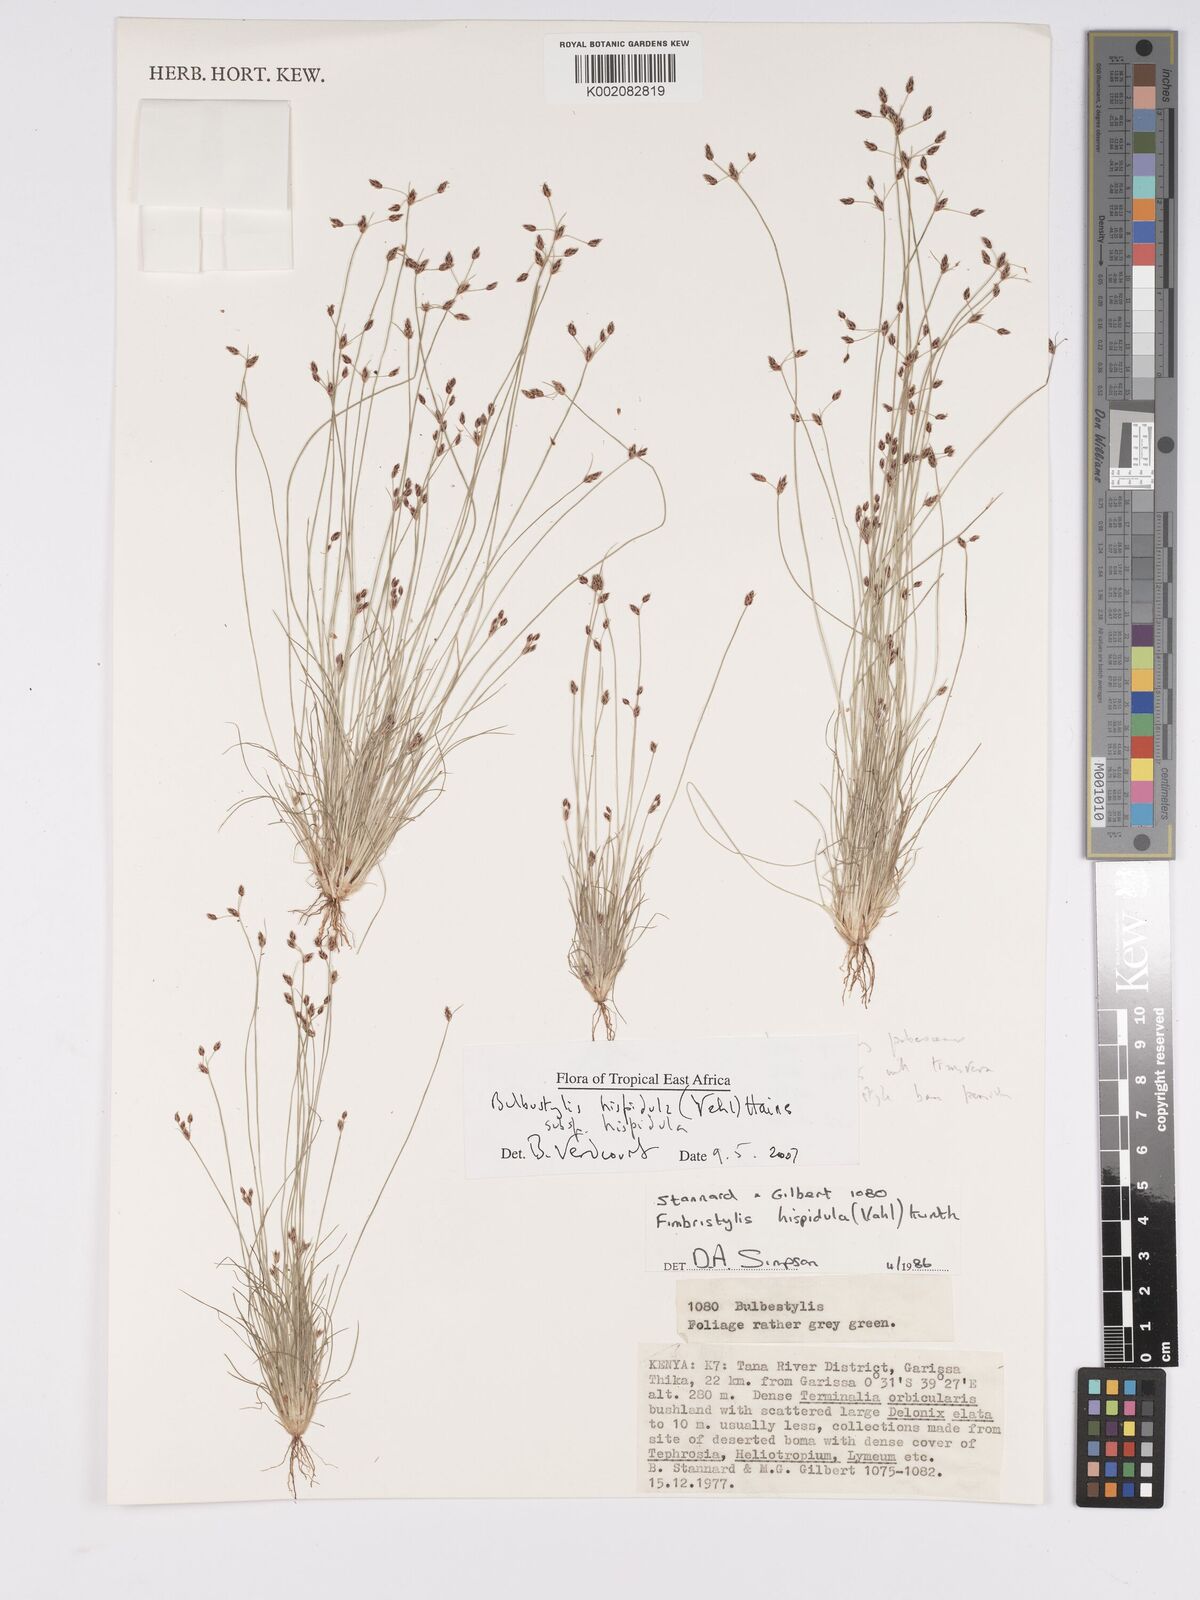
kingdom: Plantae
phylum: Tracheophyta
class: Liliopsida
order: Poales
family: Cyperaceae
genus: Bulbostylis
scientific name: Bulbostylis hispidula
